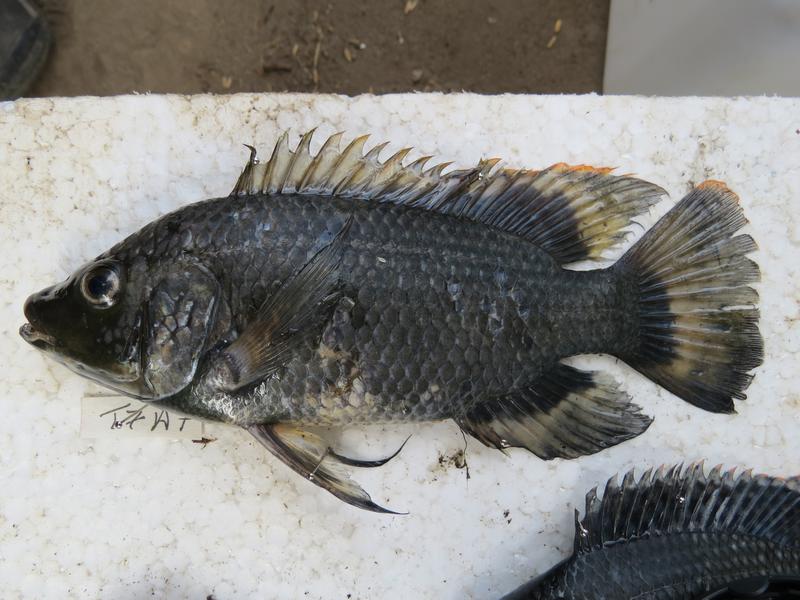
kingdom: Animalia
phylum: Chordata
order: Perciformes
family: Cichlidae
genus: Oreochromis
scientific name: Oreochromis urolepis
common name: Wami tilapia
